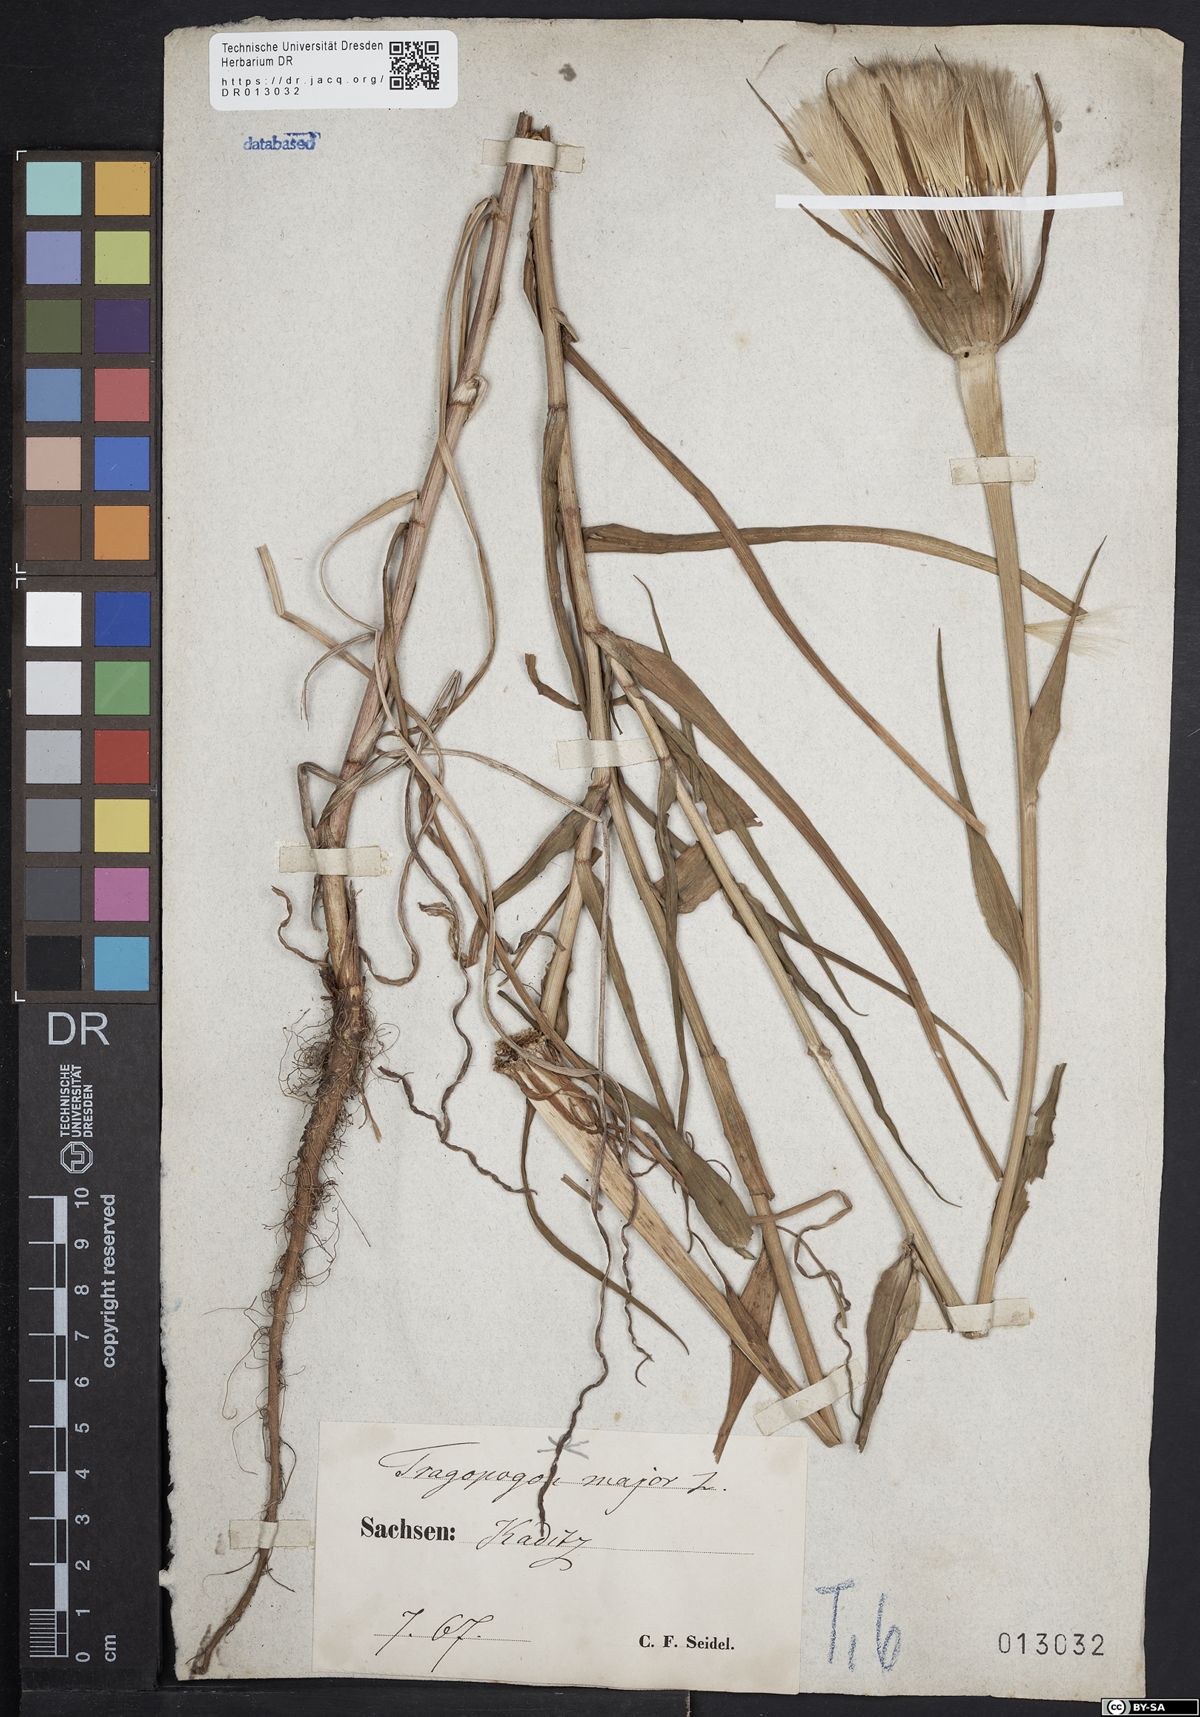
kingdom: Plantae
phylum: Tracheophyta
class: Magnoliopsida
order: Asterales
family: Asteraceae
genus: Tragopogon
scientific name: Tragopogon dubius
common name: Yellow salsify
